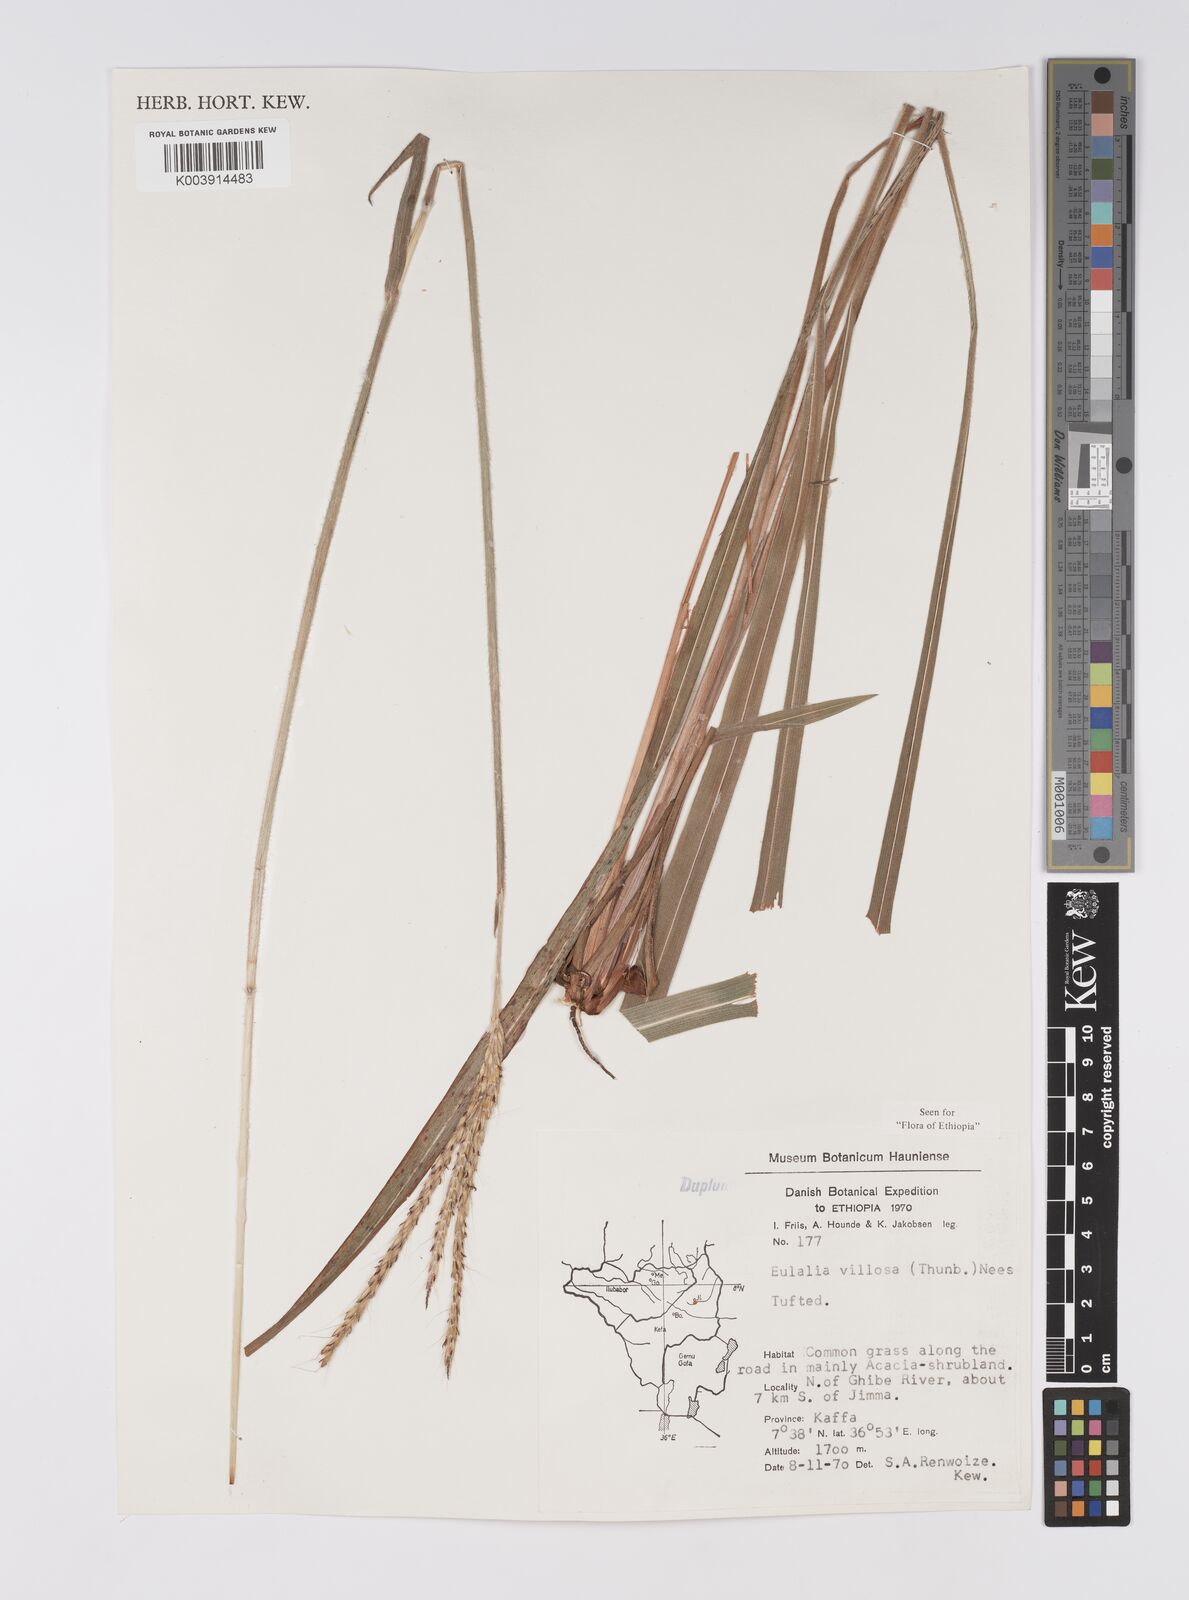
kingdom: Plantae
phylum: Tracheophyta
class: Liliopsida
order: Poales
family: Poaceae
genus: Eulalia
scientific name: Eulalia villosa
